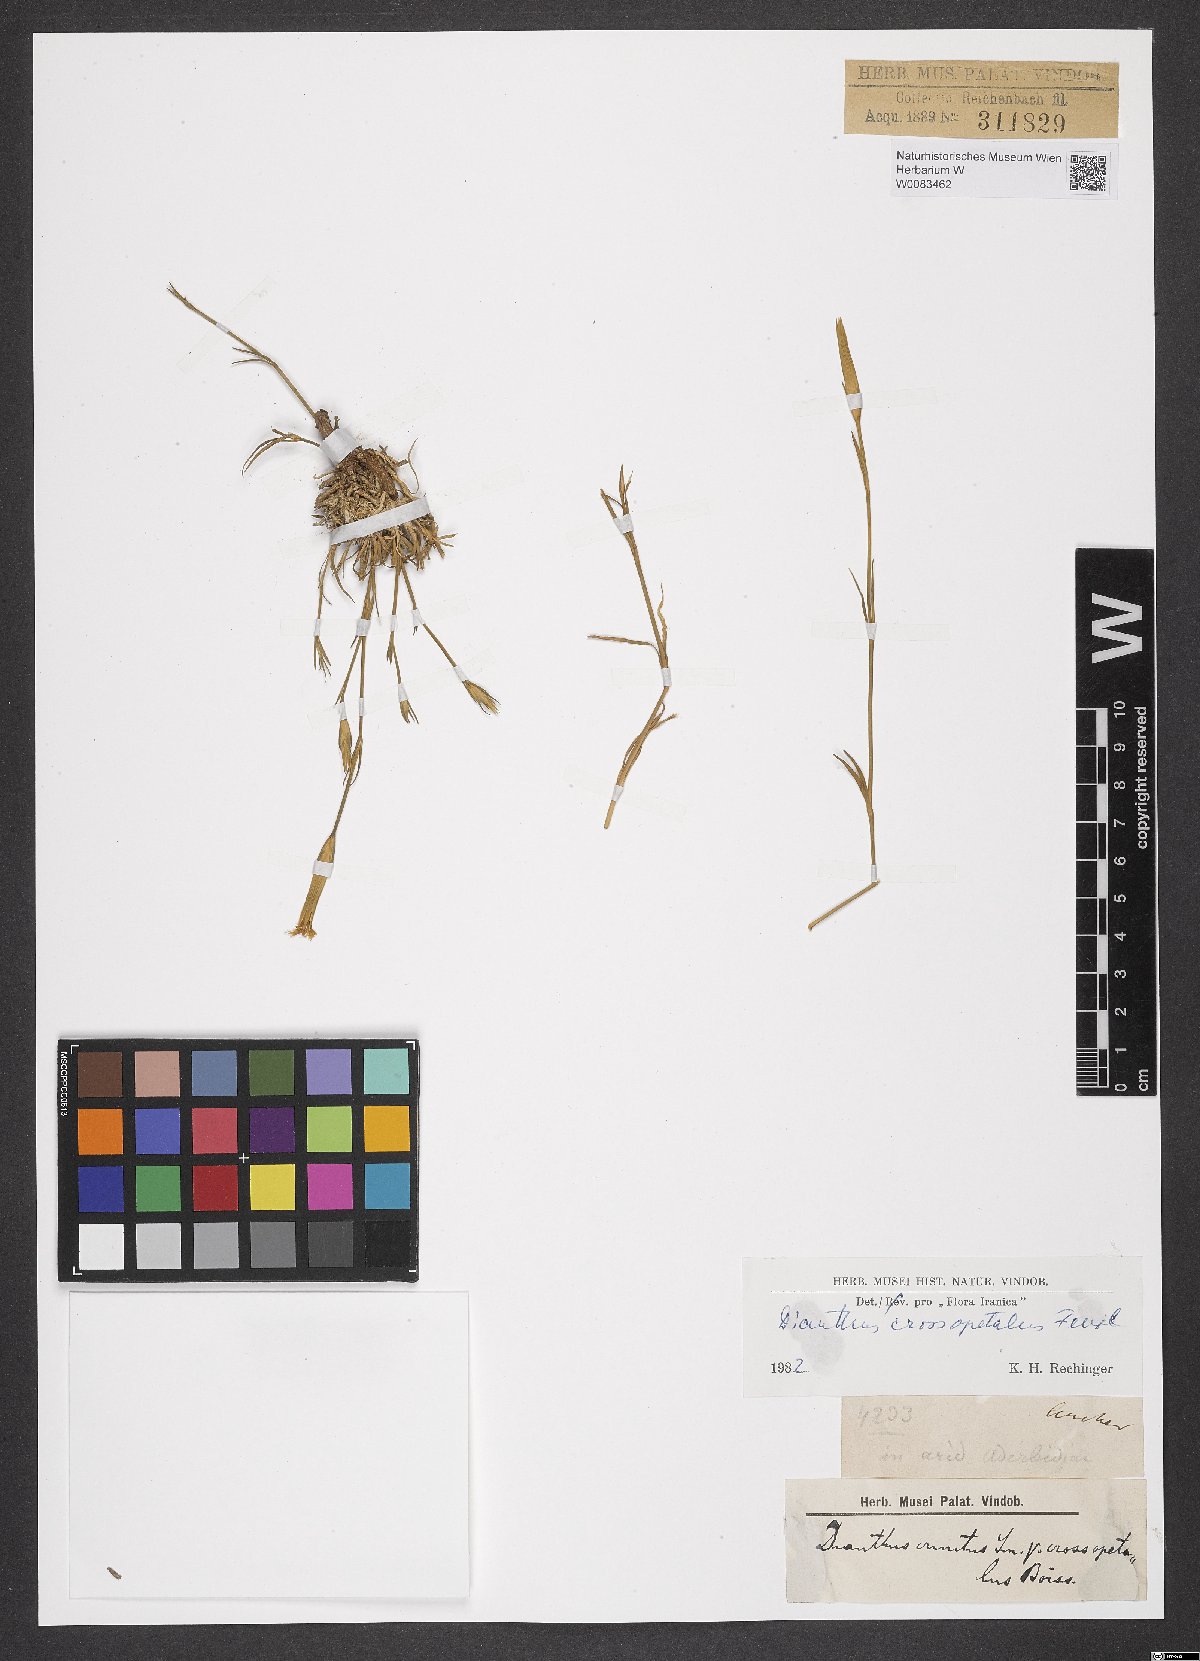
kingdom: Plantae
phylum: Tracheophyta
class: Magnoliopsida
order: Caryophyllales
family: Caryophyllaceae
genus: Dianthus
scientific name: Dianthus crossopetalus
